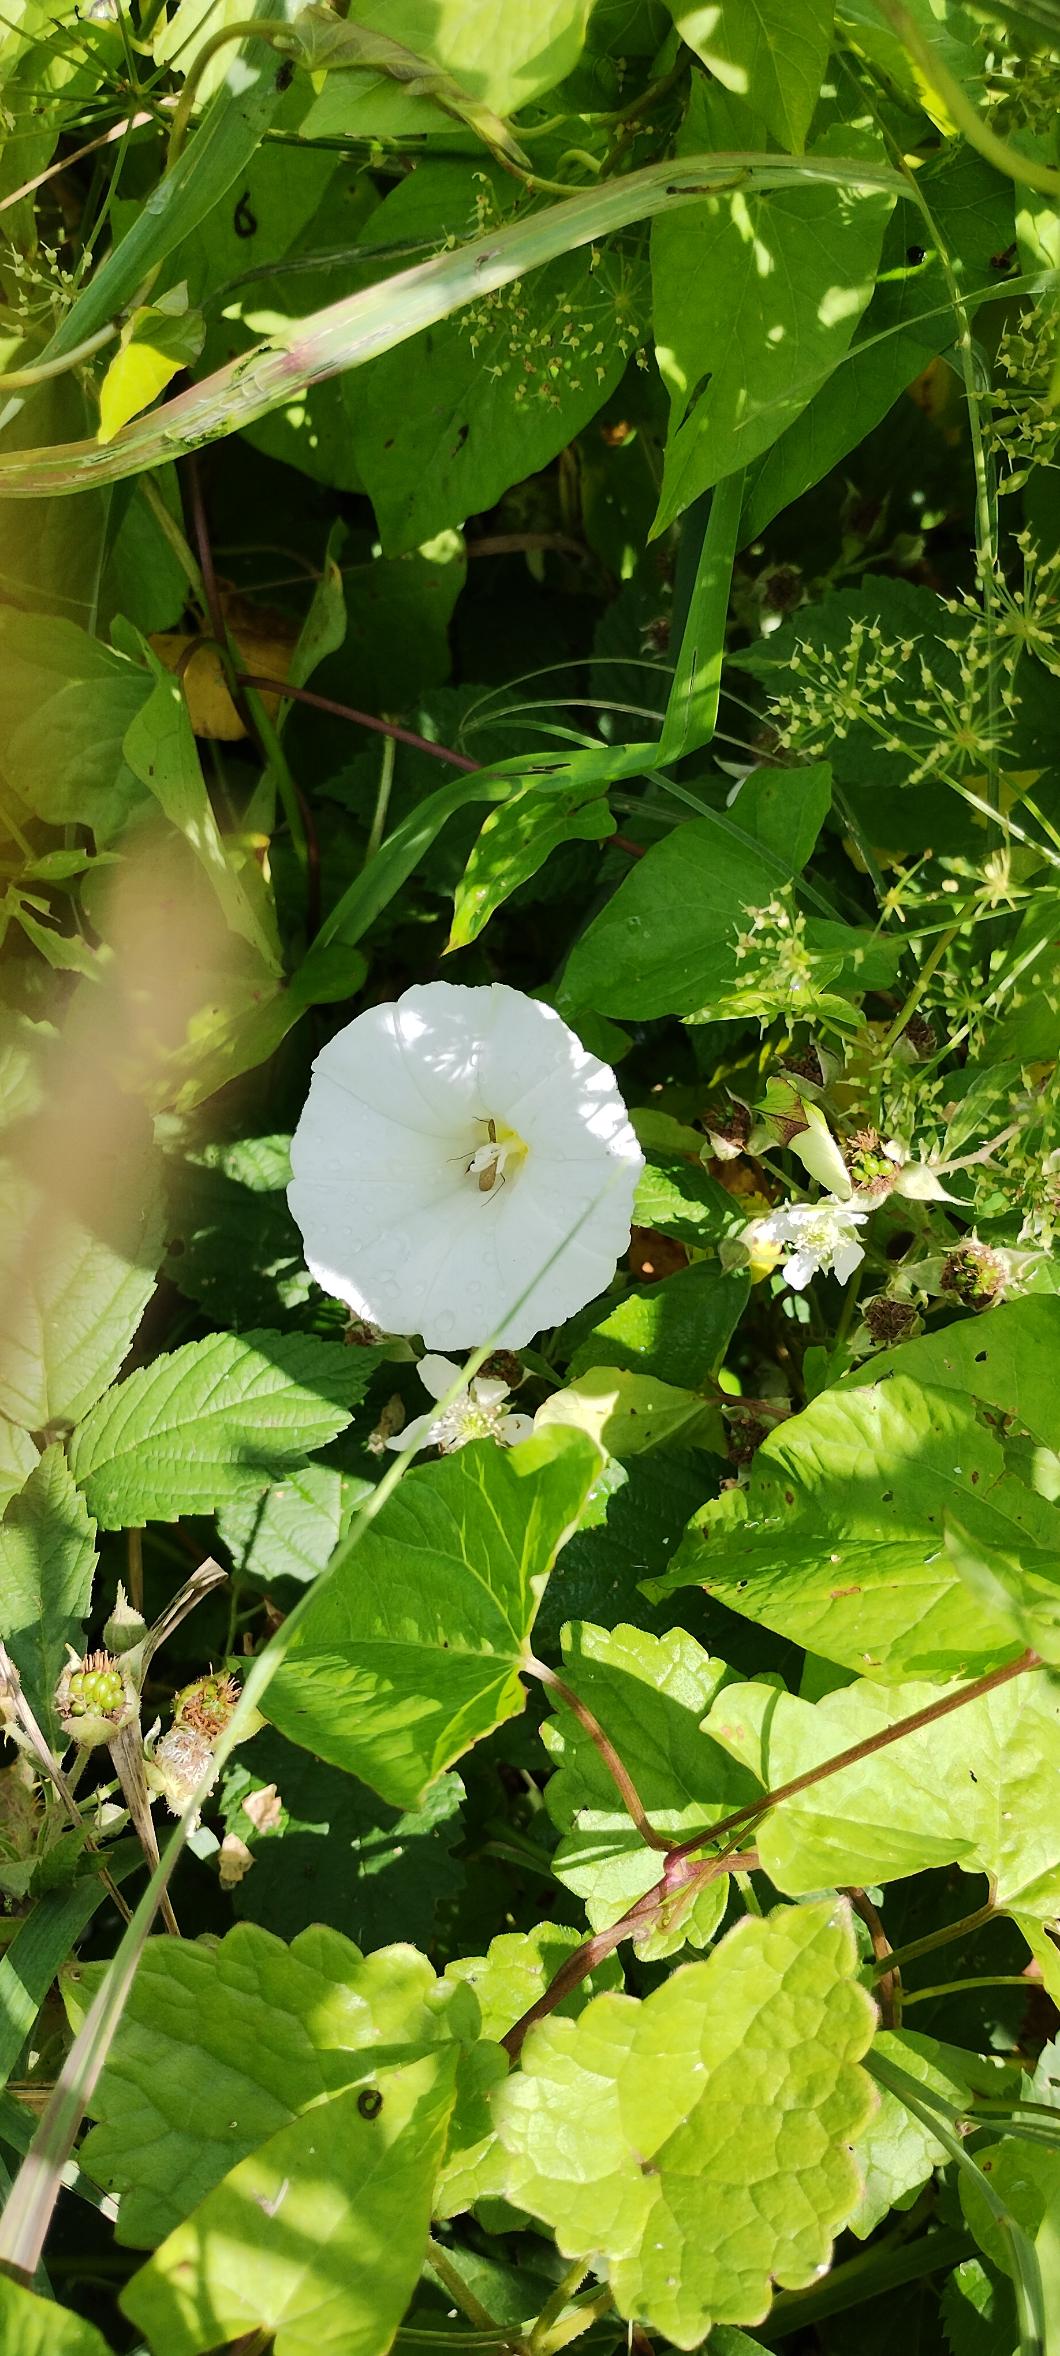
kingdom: Plantae
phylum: Tracheophyta
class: Magnoliopsida
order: Solanales
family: Convolvulaceae
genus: Calystegia
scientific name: Calystegia sepium
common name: Gærde-snerle
